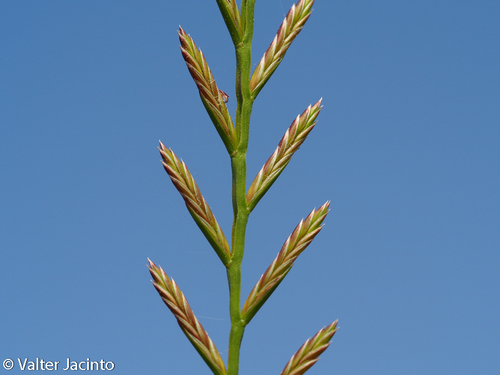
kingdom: Plantae
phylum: Tracheophyta
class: Liliopsida
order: Poales
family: Poaceae
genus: Lolium
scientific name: Lolium perenne
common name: Perennial ryegrass
